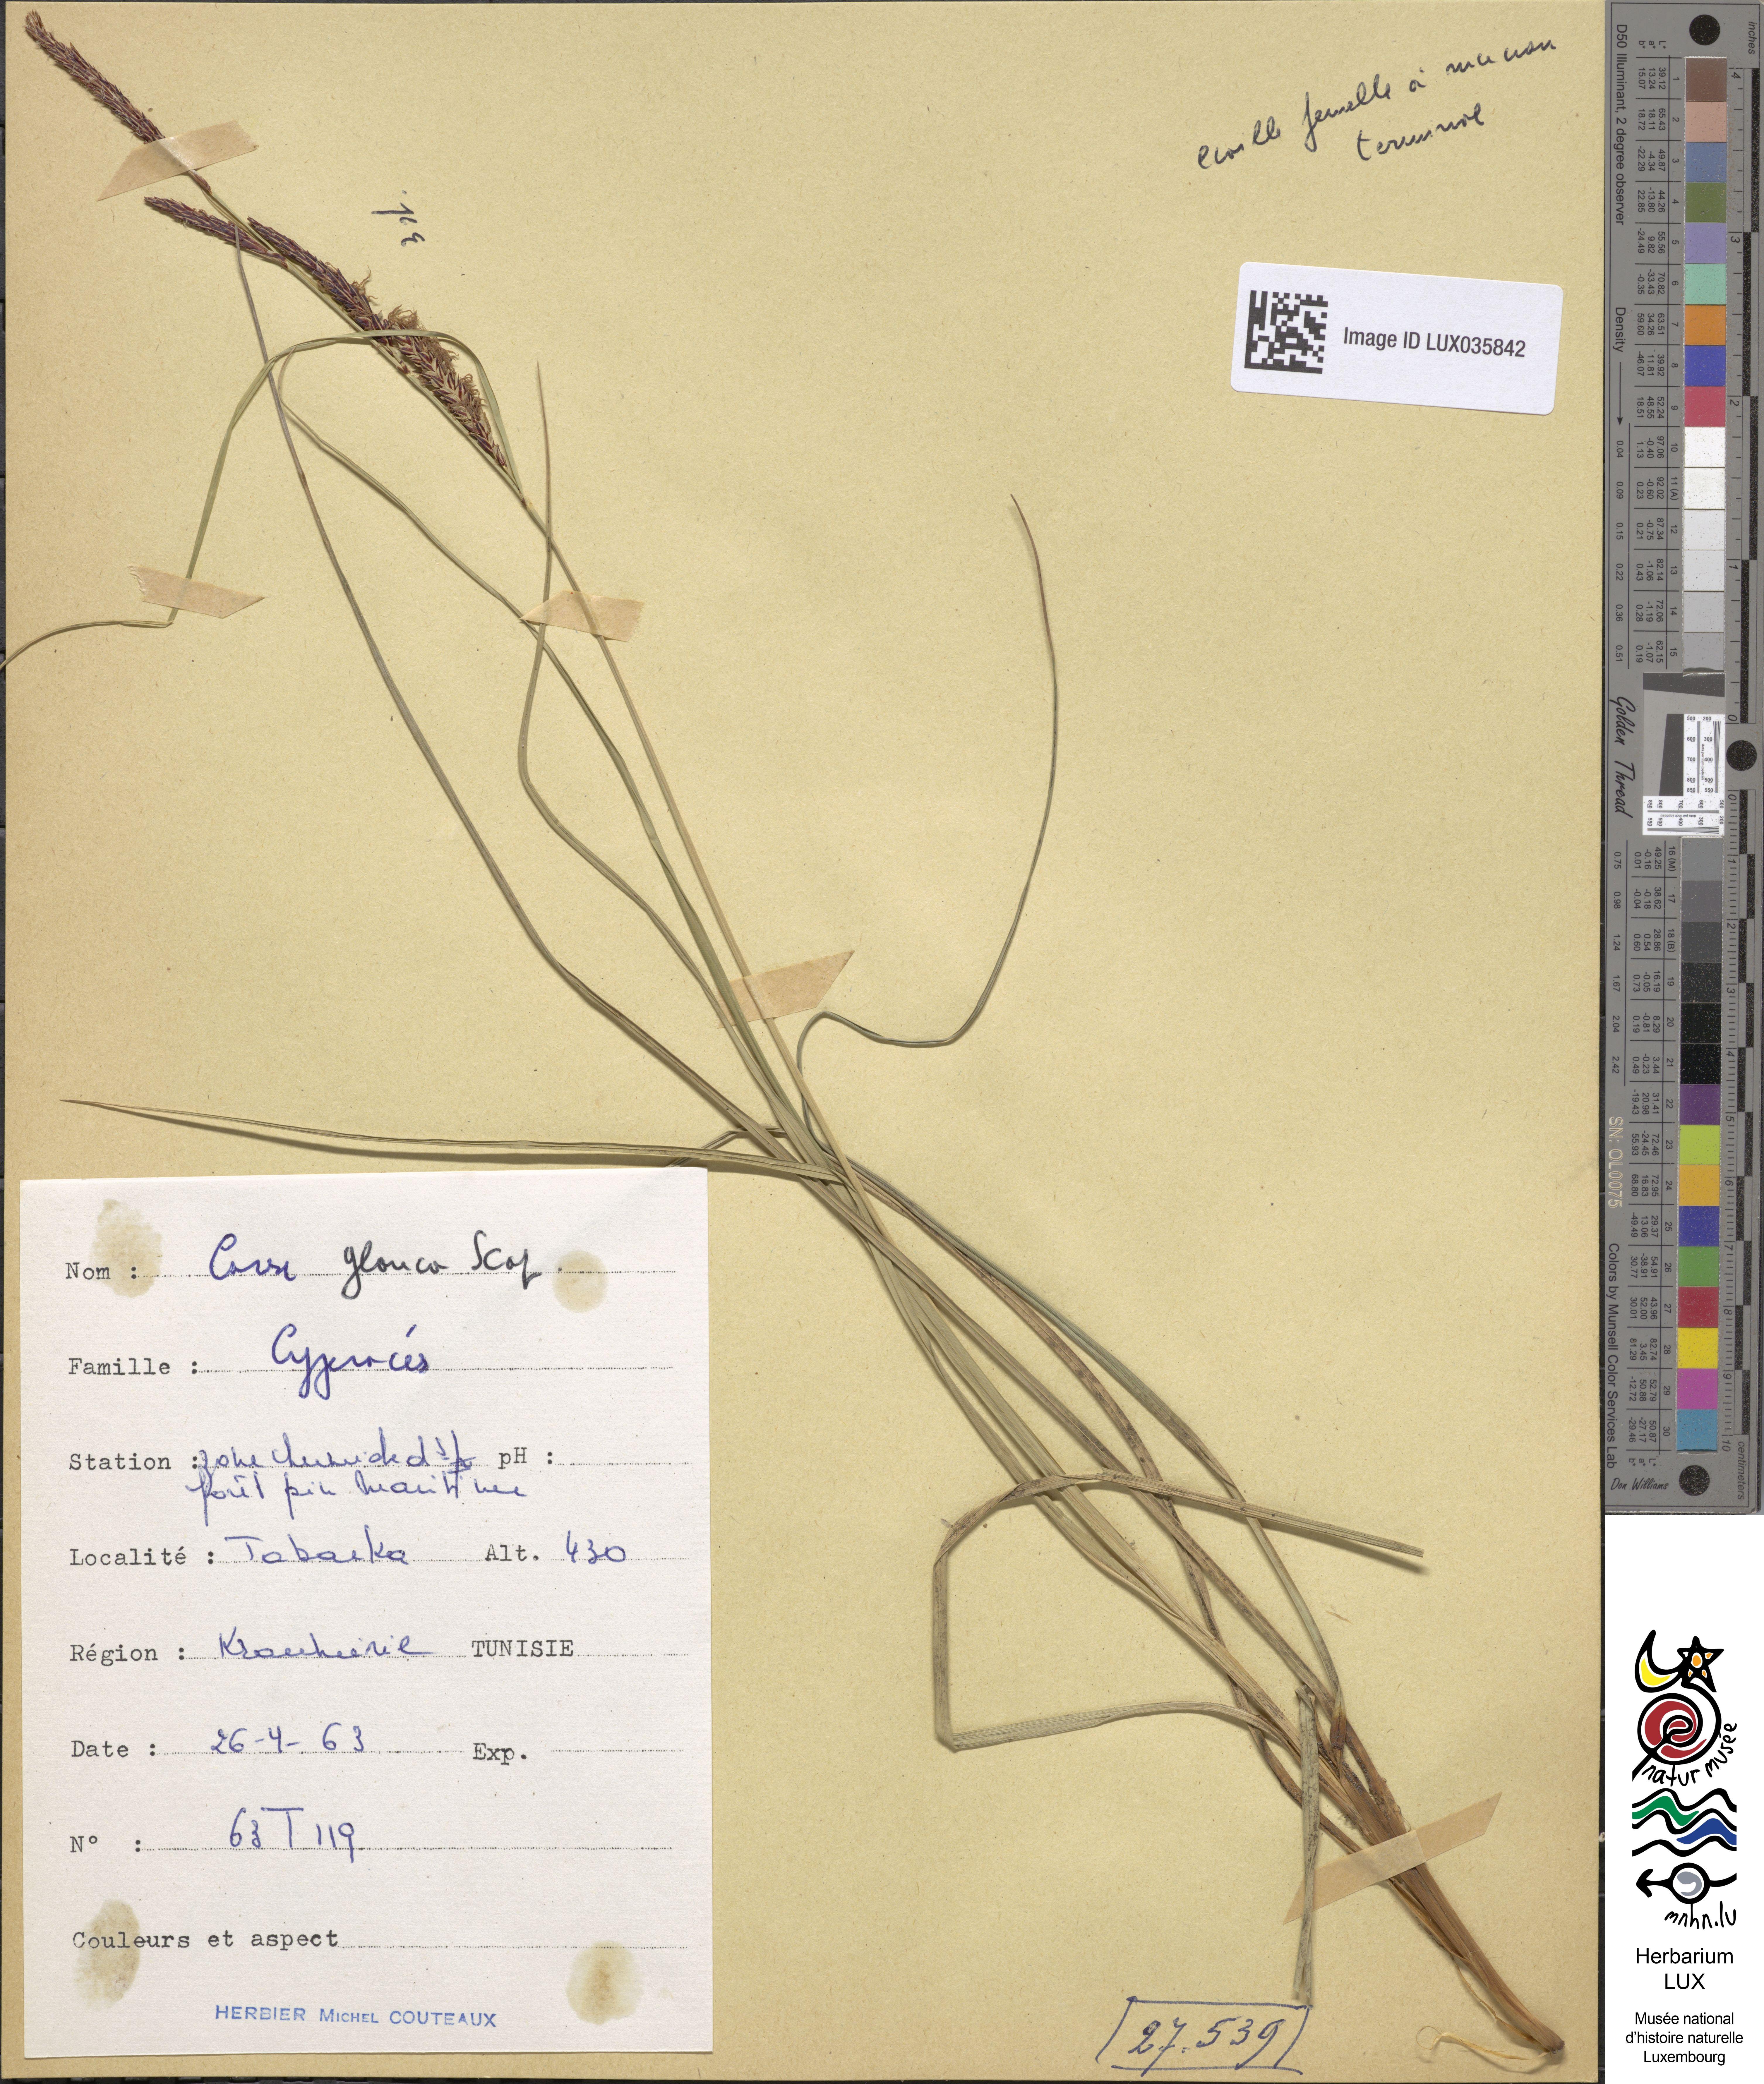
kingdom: Plantae
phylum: Tracheophyta
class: Liliopsida
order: Poales
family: Cyperaceae
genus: Carex
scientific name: Carex flacca
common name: Glaucous sedge
